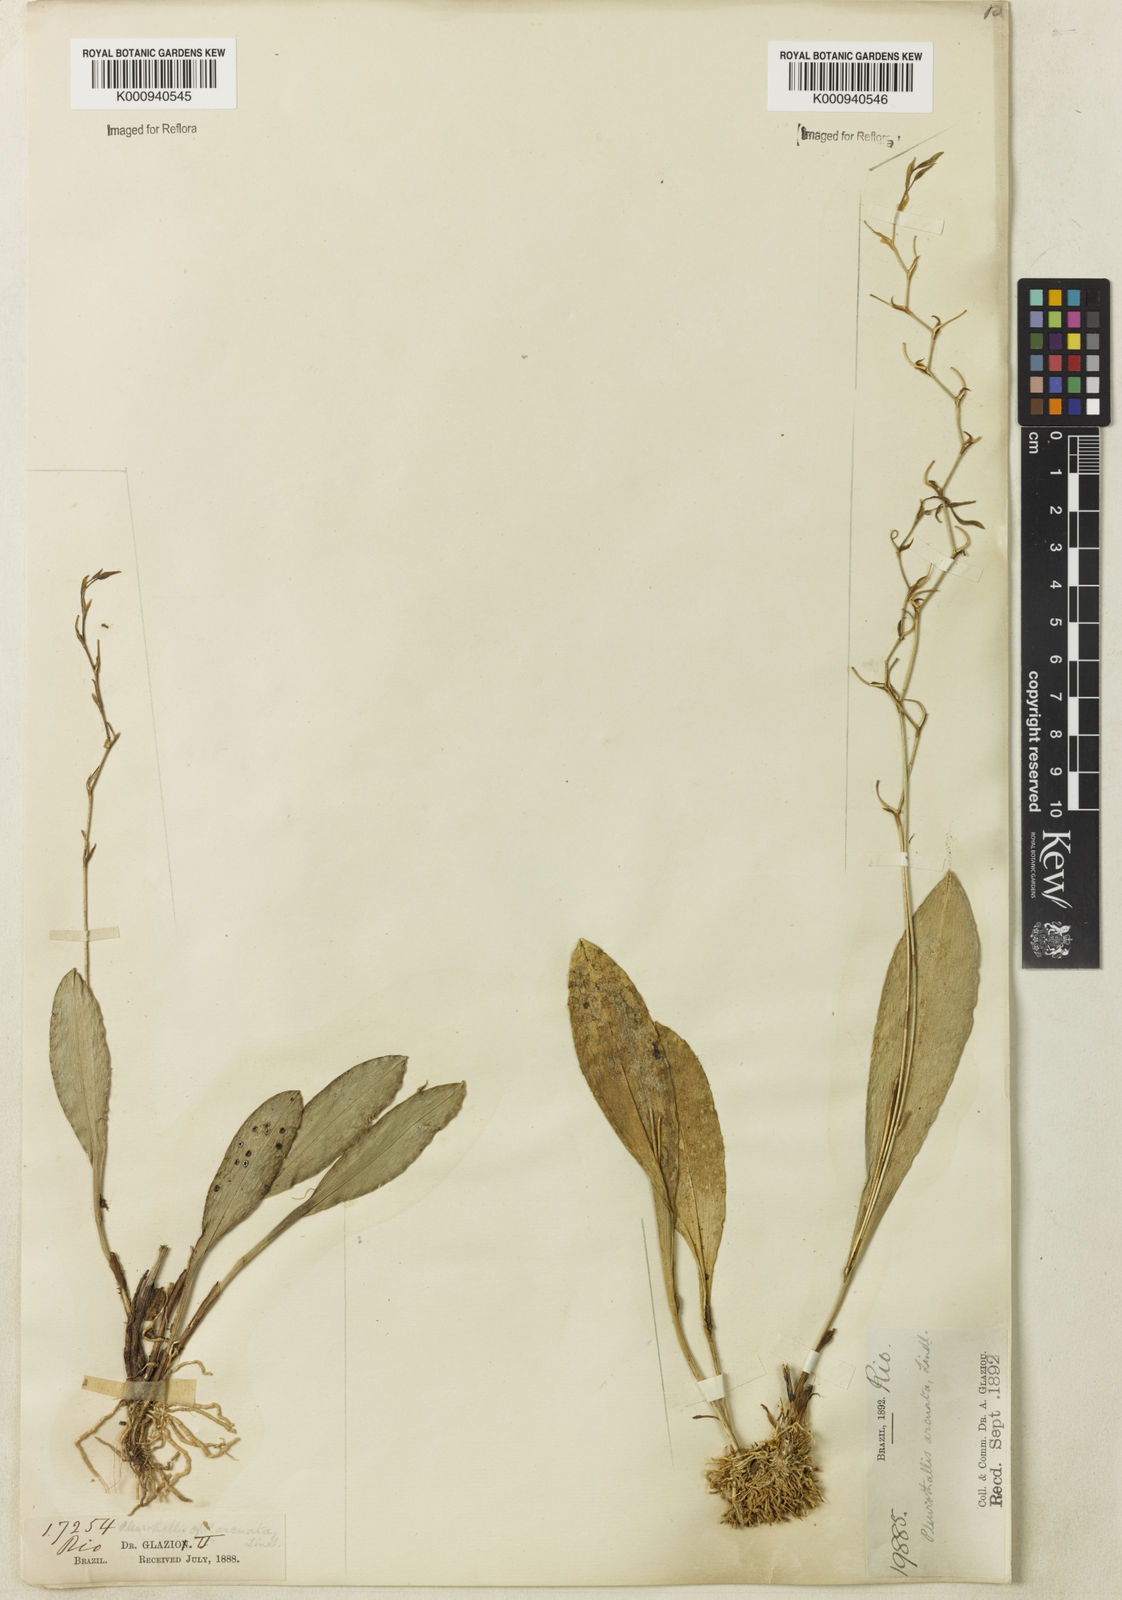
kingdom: Plantae
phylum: Tracheophyta
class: Liliopsida
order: Asparagales
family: Orchidaceae
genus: Stelis
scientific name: Stelis
